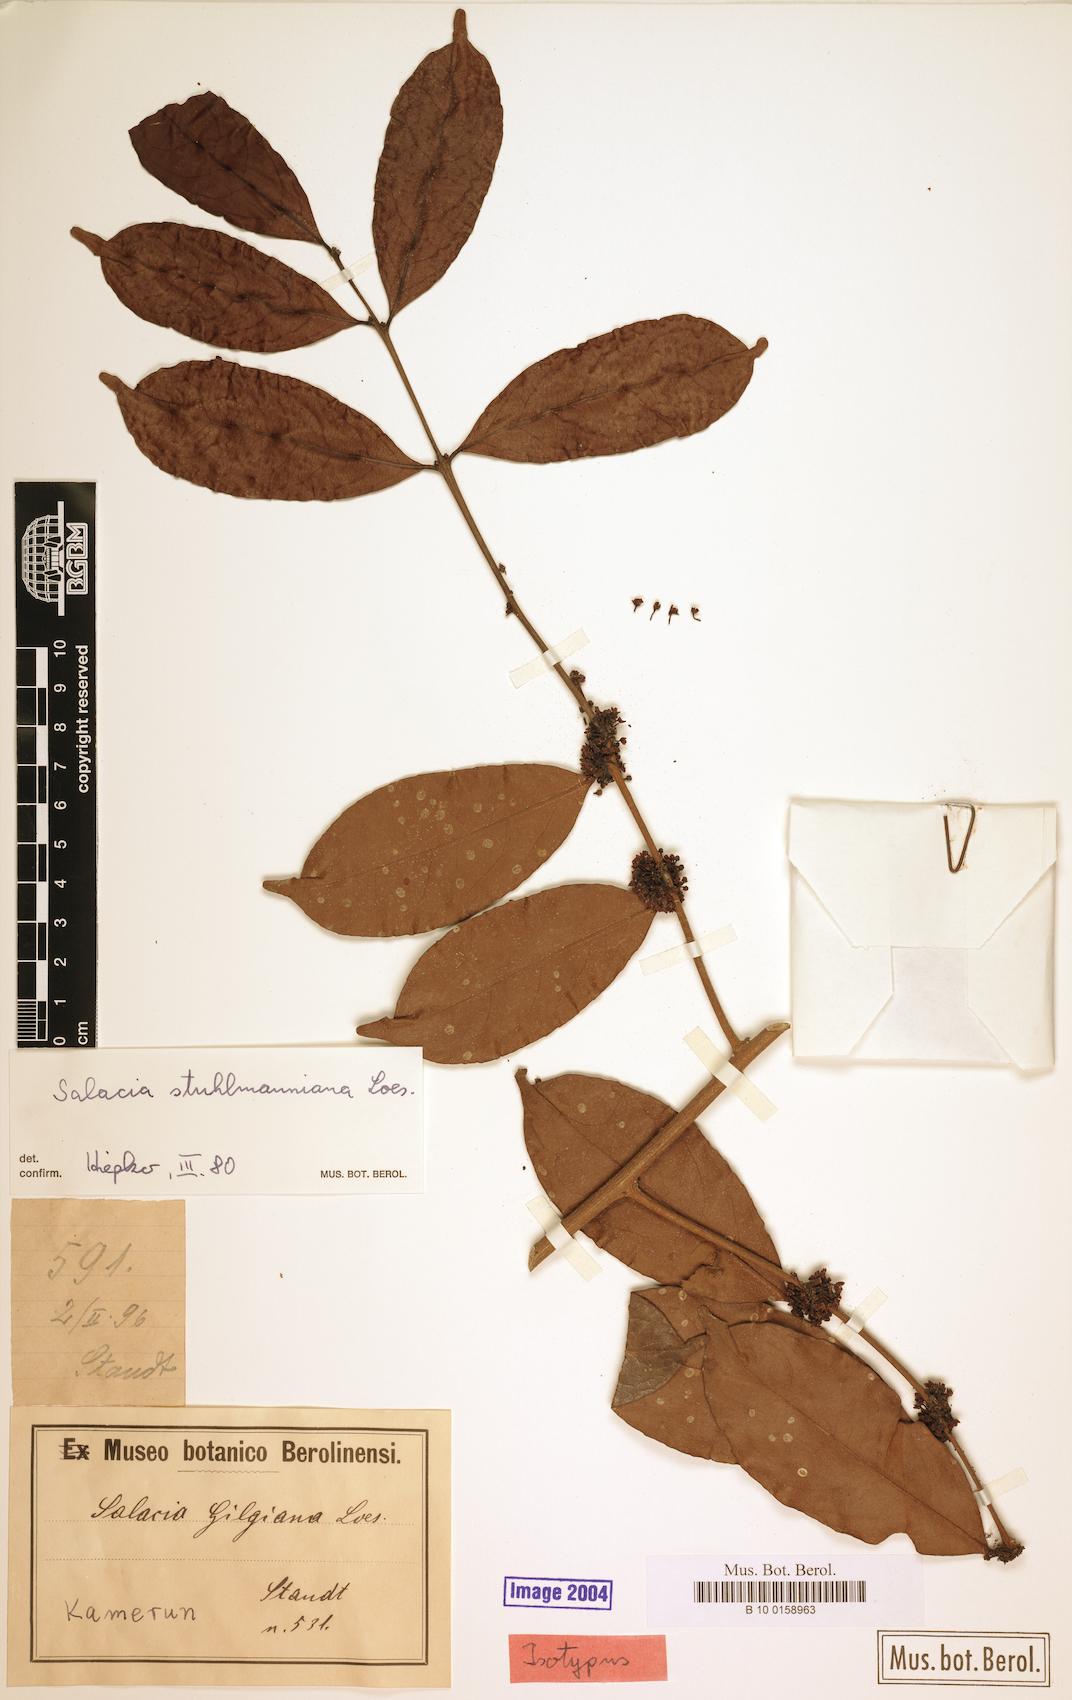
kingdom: Plantae
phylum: Tracheophyta
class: Magnoliopsida
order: Celastrales
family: Celastraceae
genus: Salacia
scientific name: Salacia stuhlmanniana
